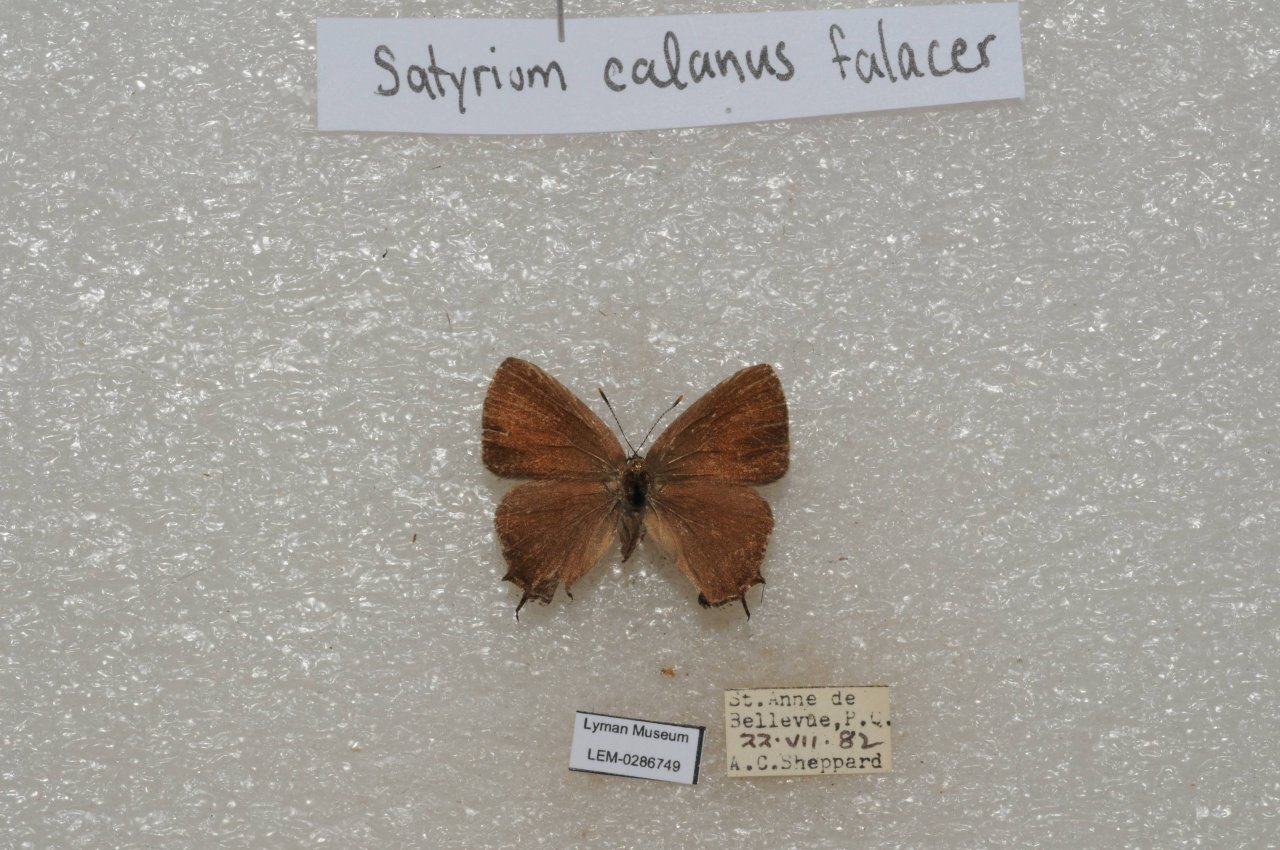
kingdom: Animalia
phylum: Arthropoda
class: Insecta
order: Lepidoptera
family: Lycaenidae
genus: Satyrium
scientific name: Satyrium calanus
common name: Banded Hairstreak
